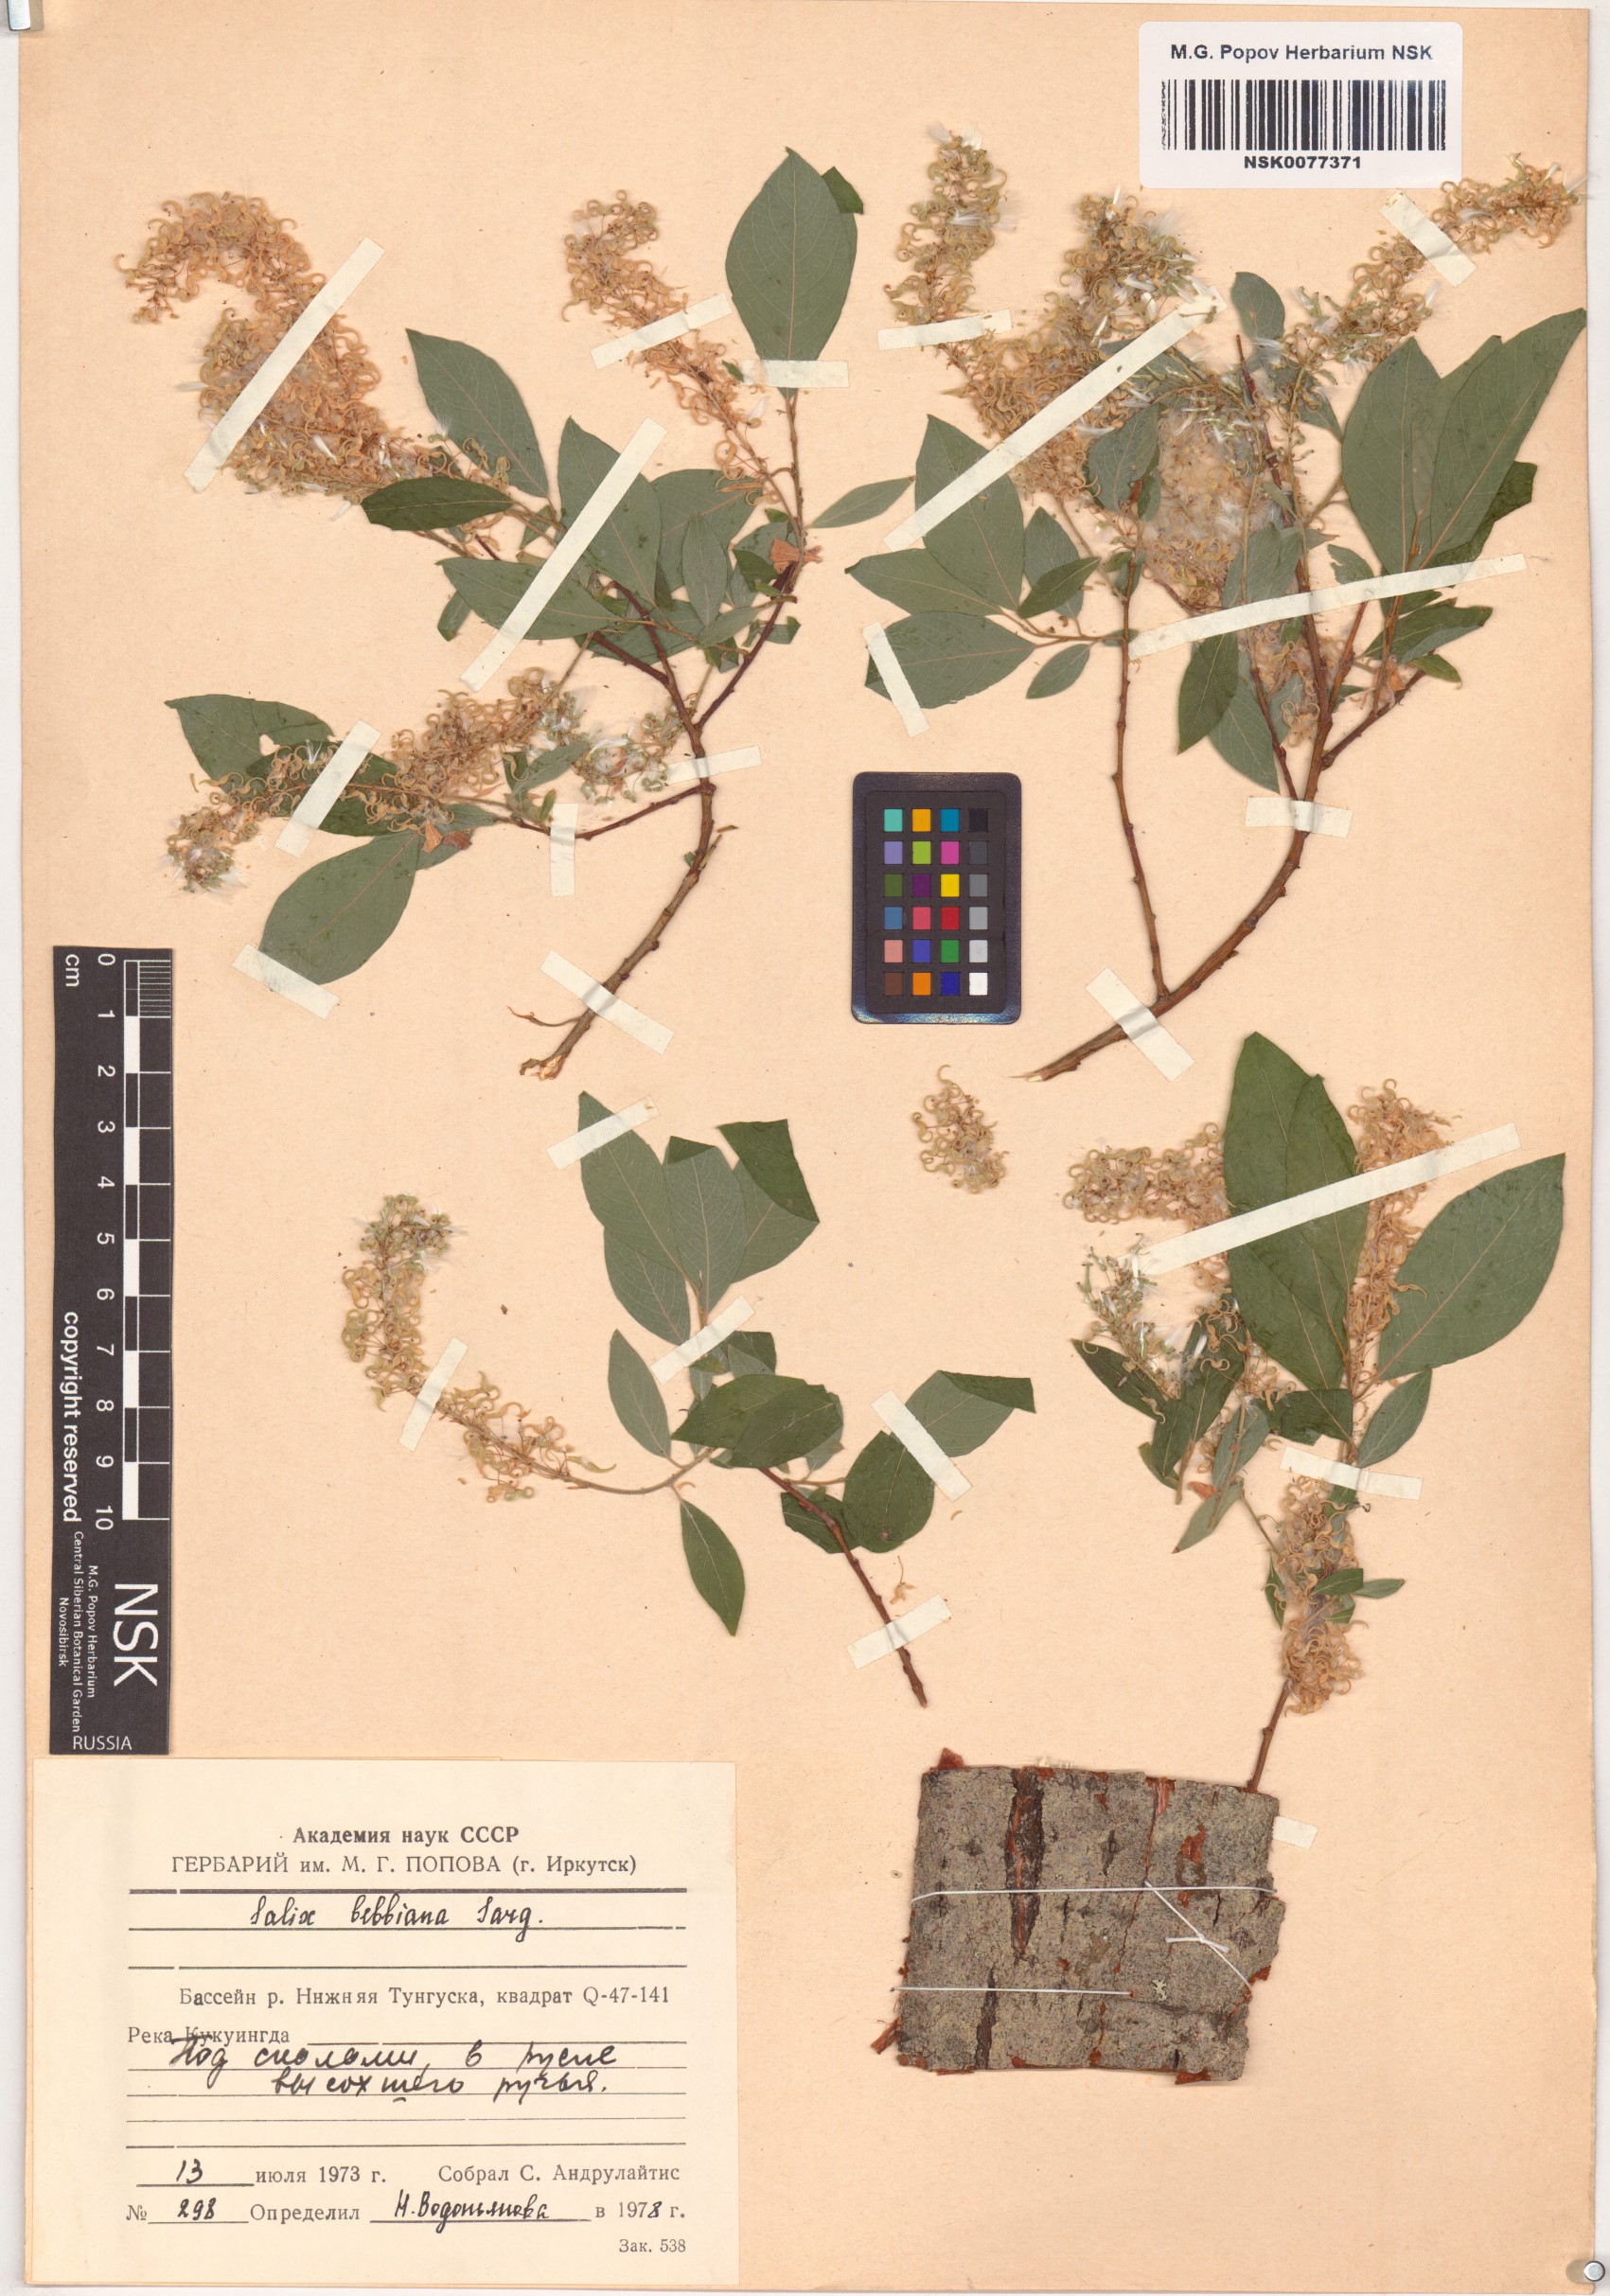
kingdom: Plantae
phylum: Tracheophyta
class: Magnoliopsida
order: Malpighiales
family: Salicaceae
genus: Salix
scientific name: Salix bebbiana
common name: Bebb's willow
